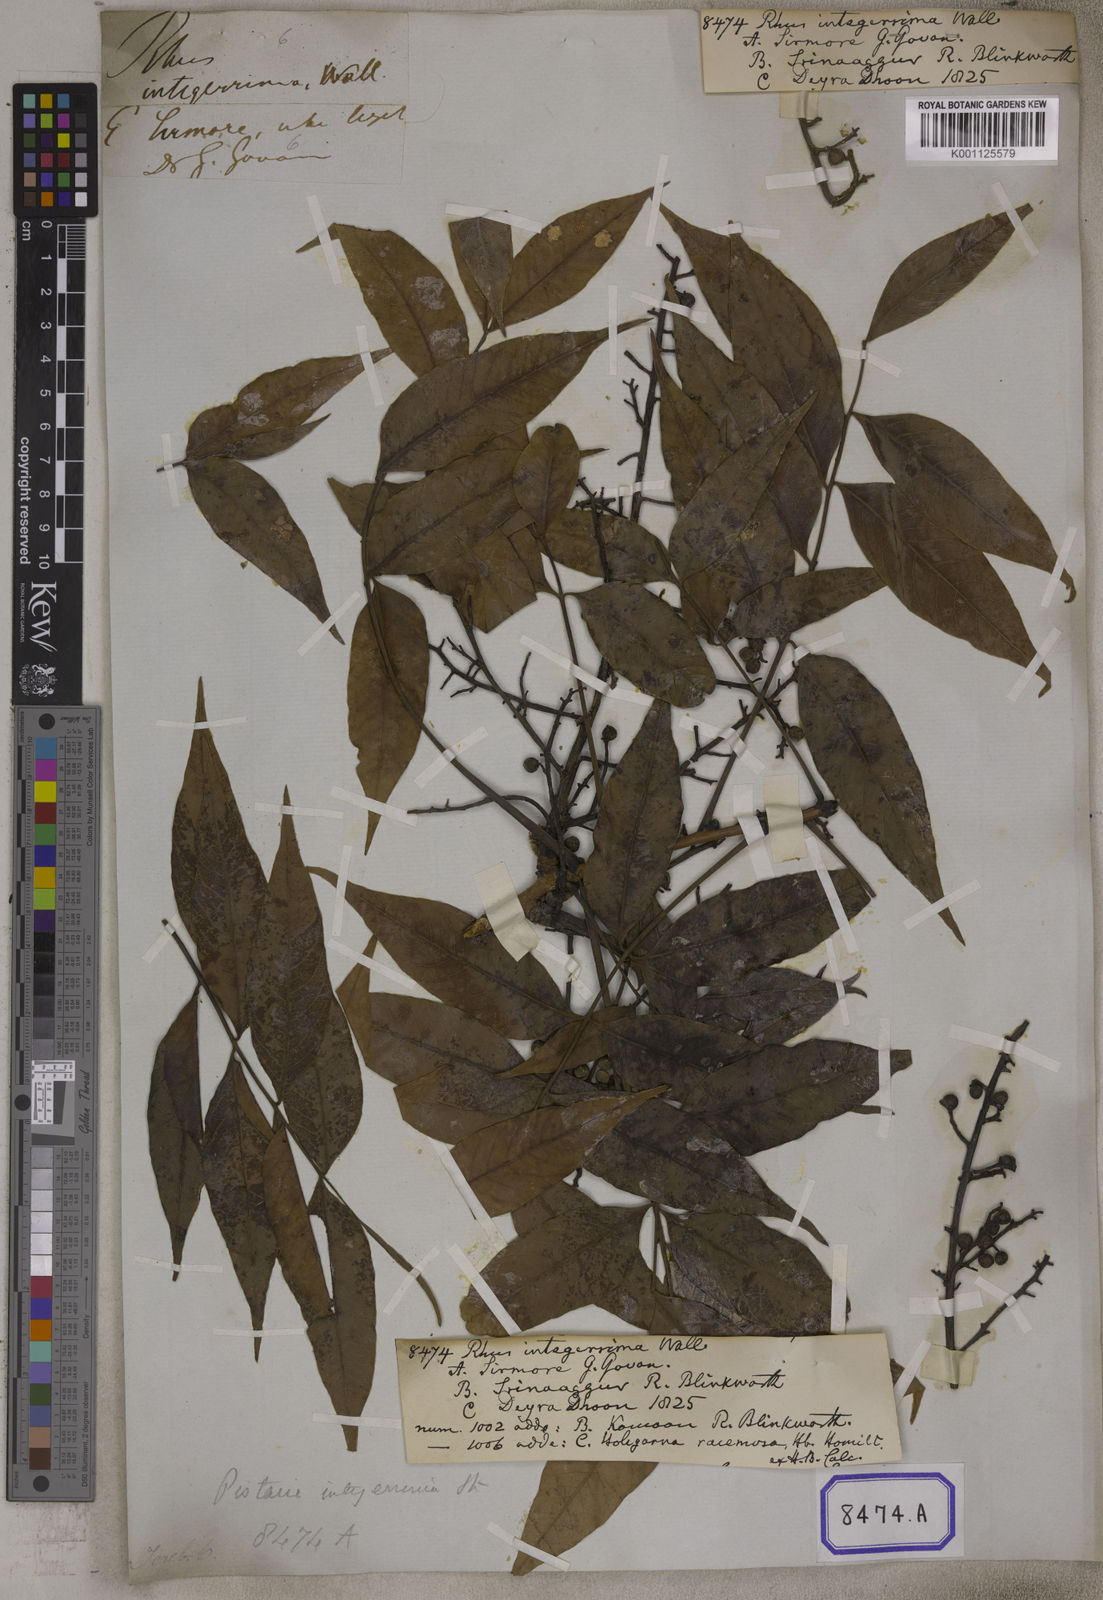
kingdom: Plantae
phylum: Tracheophyta
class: Magnoliopsida
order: Sapindales
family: Anacardiaceae
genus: Pistacia
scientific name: Pistacia chinensis
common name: Chinese pistache
